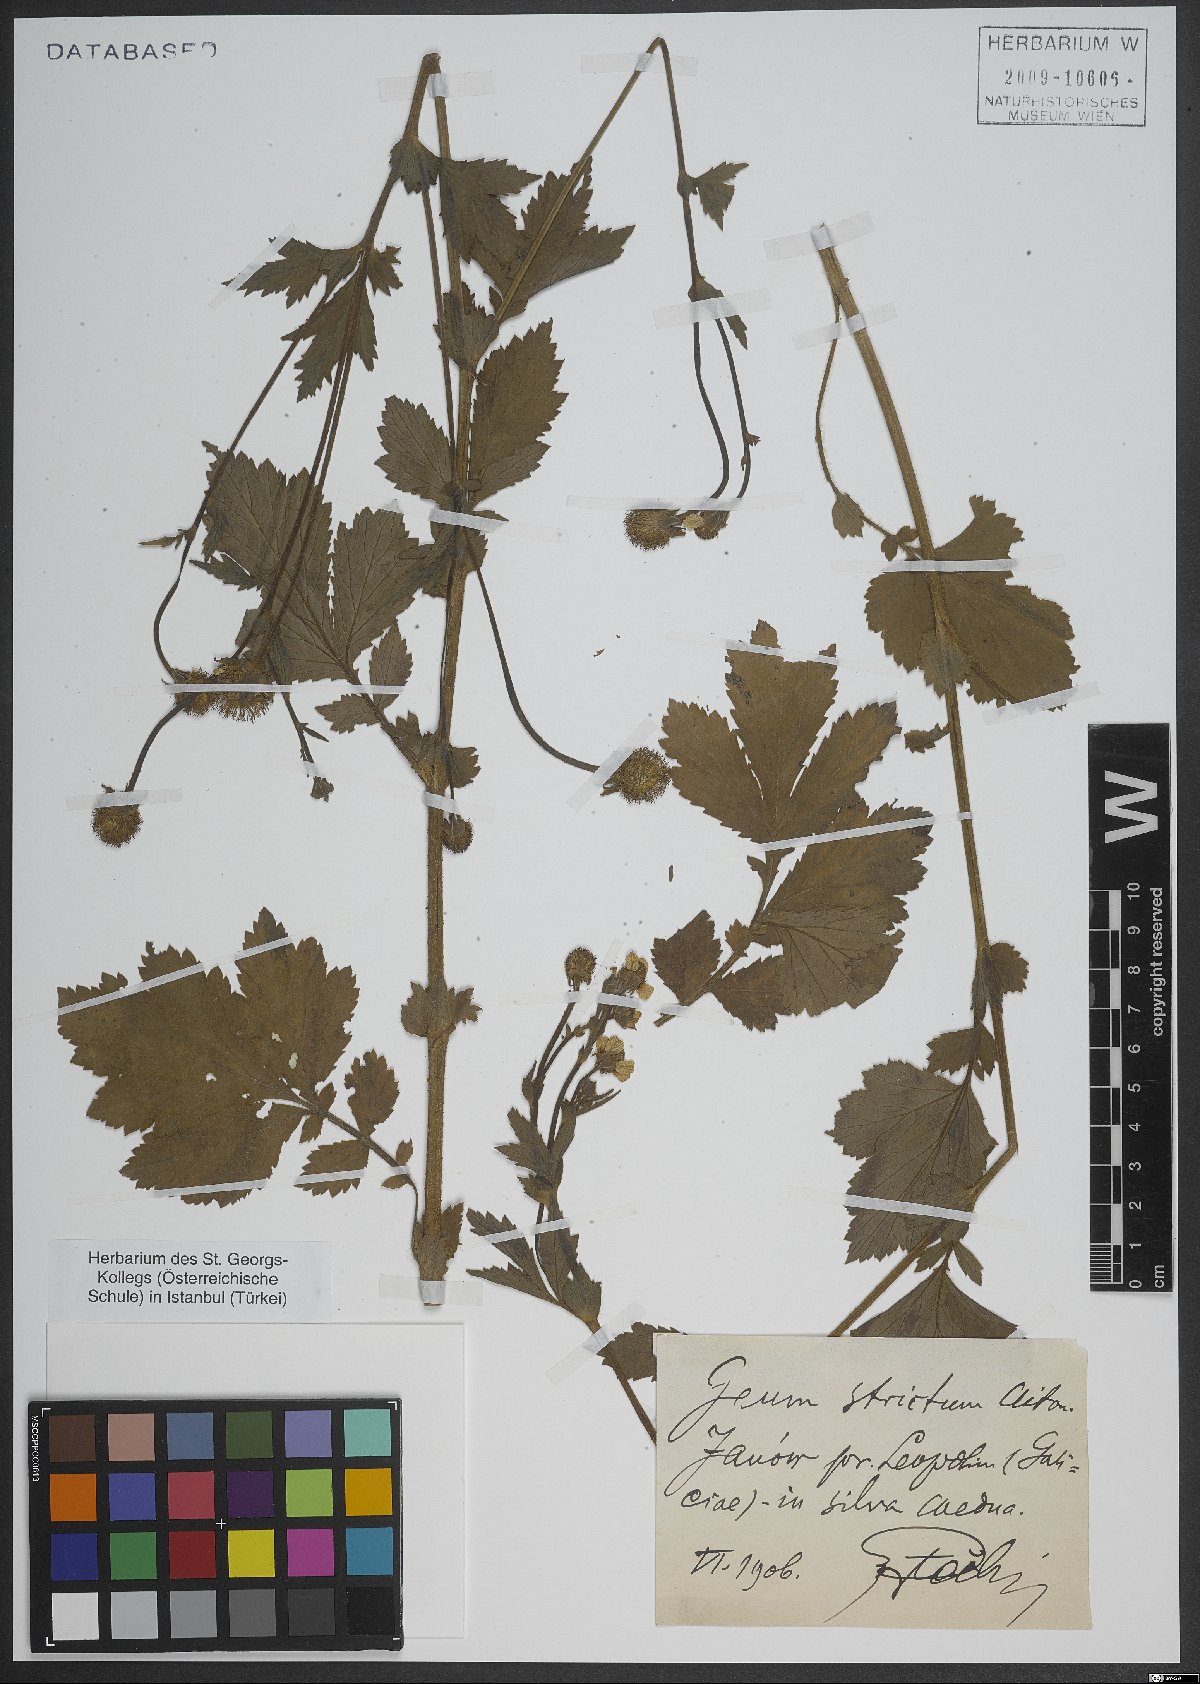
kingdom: Plantae
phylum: Tracheophyta
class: Magnoliopsida
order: Rosales
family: Rosaceae
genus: Geum
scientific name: Geum aleppicum
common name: Yellow avens
